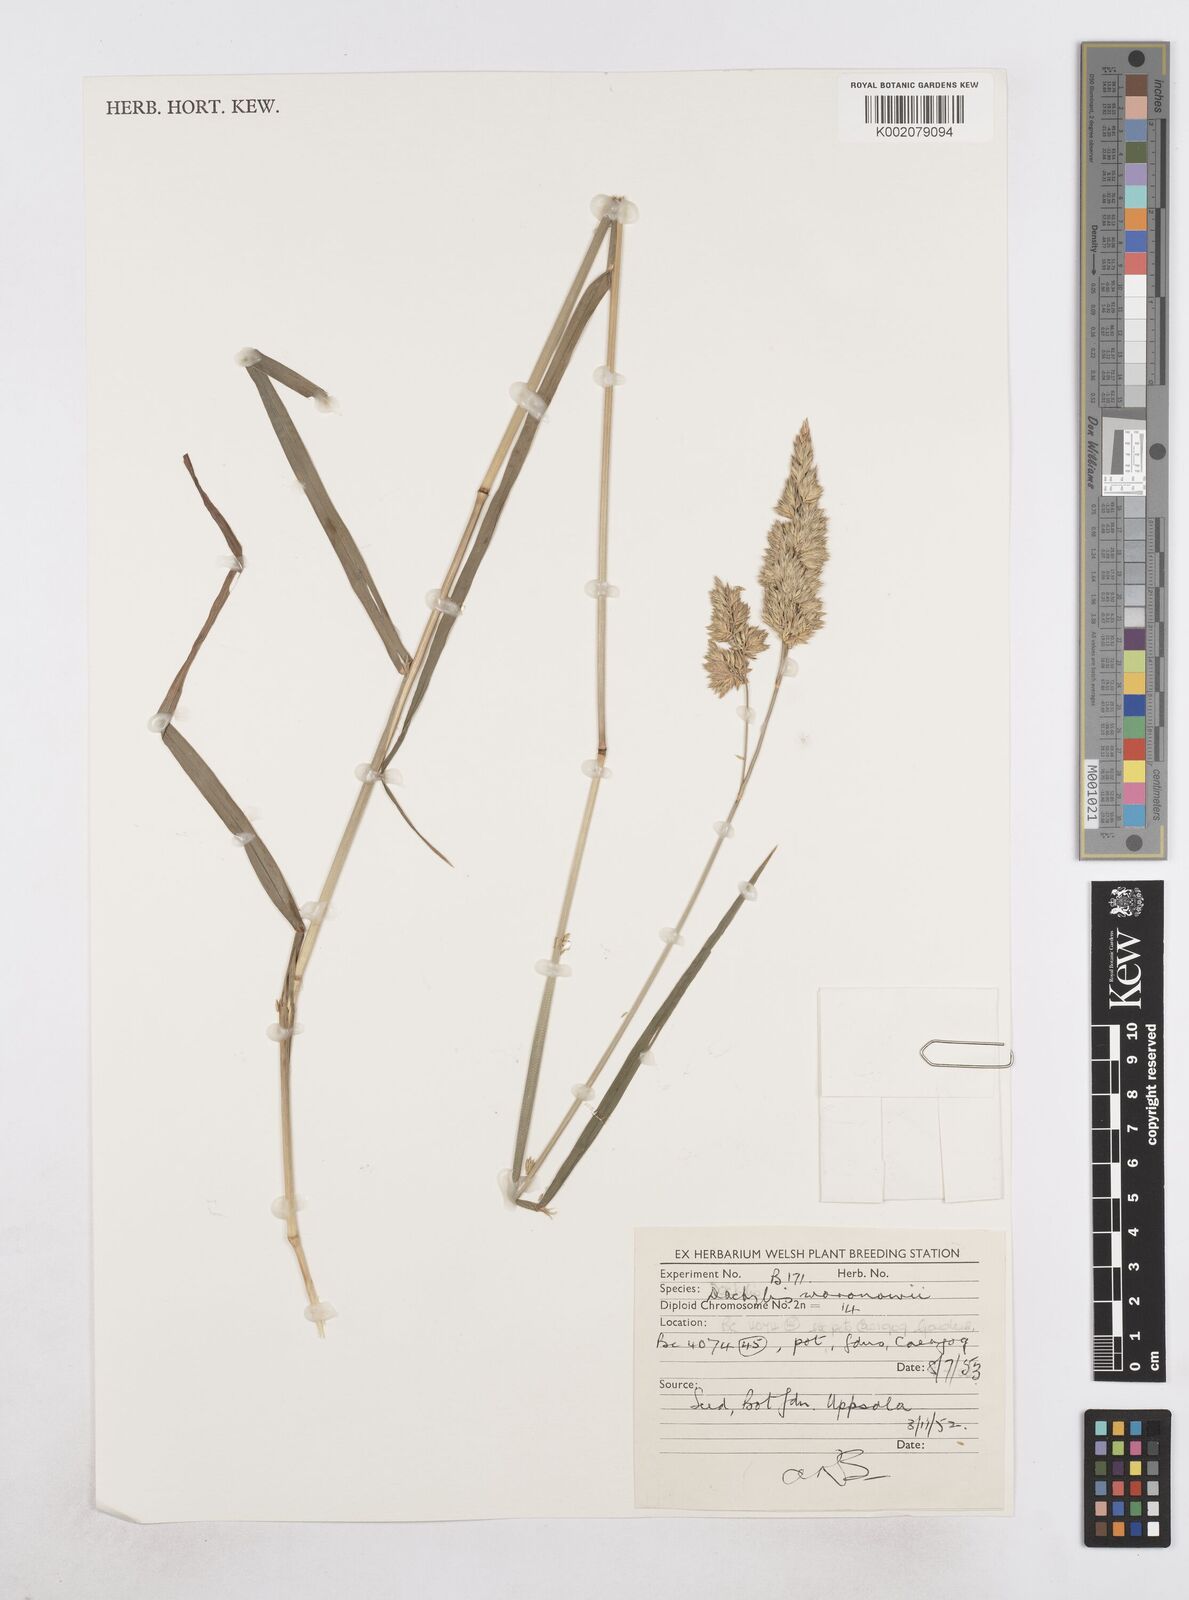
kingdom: Plantae
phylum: Tracheophyta
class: Liliopsida
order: Poales
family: Poaceae
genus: Dactylis
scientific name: Dactylis glomerata
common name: Orchardgrass
